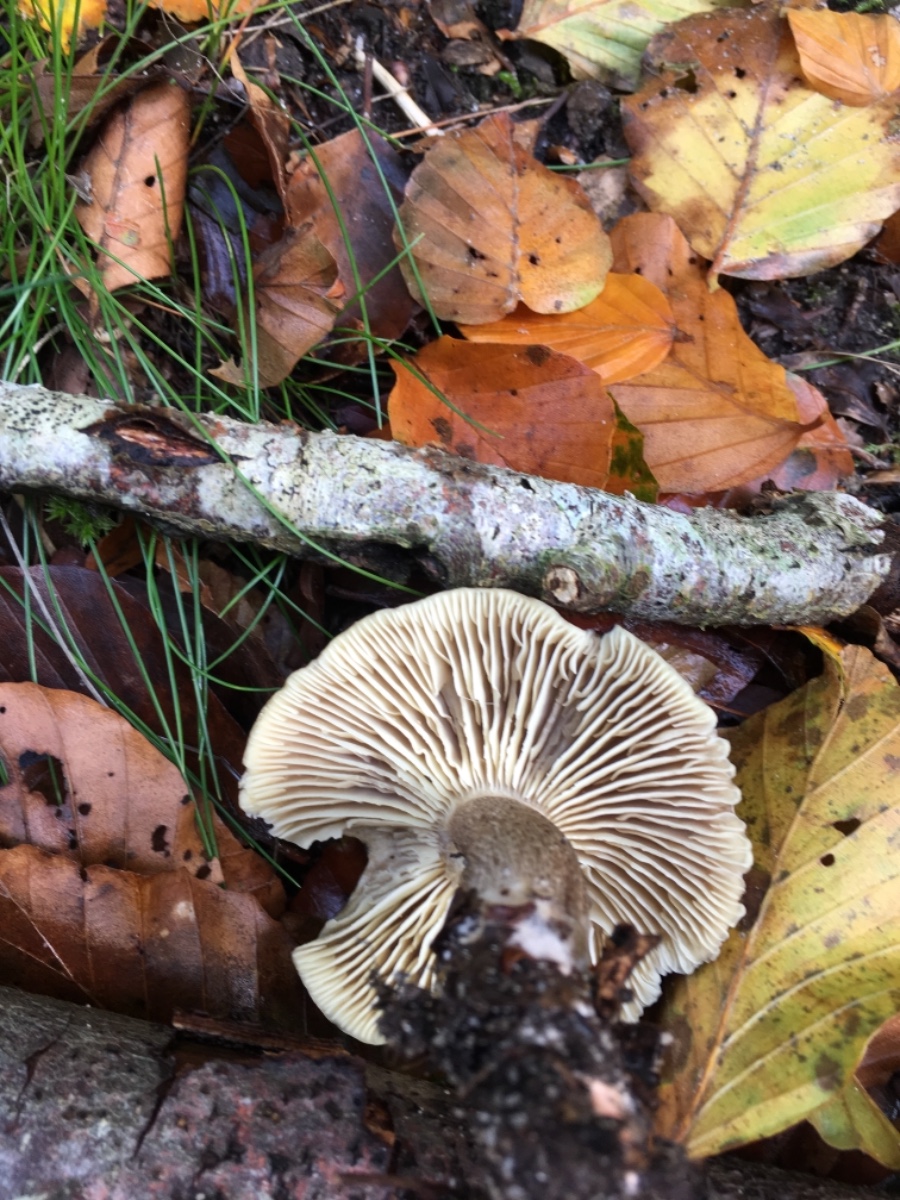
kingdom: Fungi
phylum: Basidiomycota
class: Agaricomycetes
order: Agaricales
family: Tricholomataceae
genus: Tricholoma
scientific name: Tricholoma saponaceum
